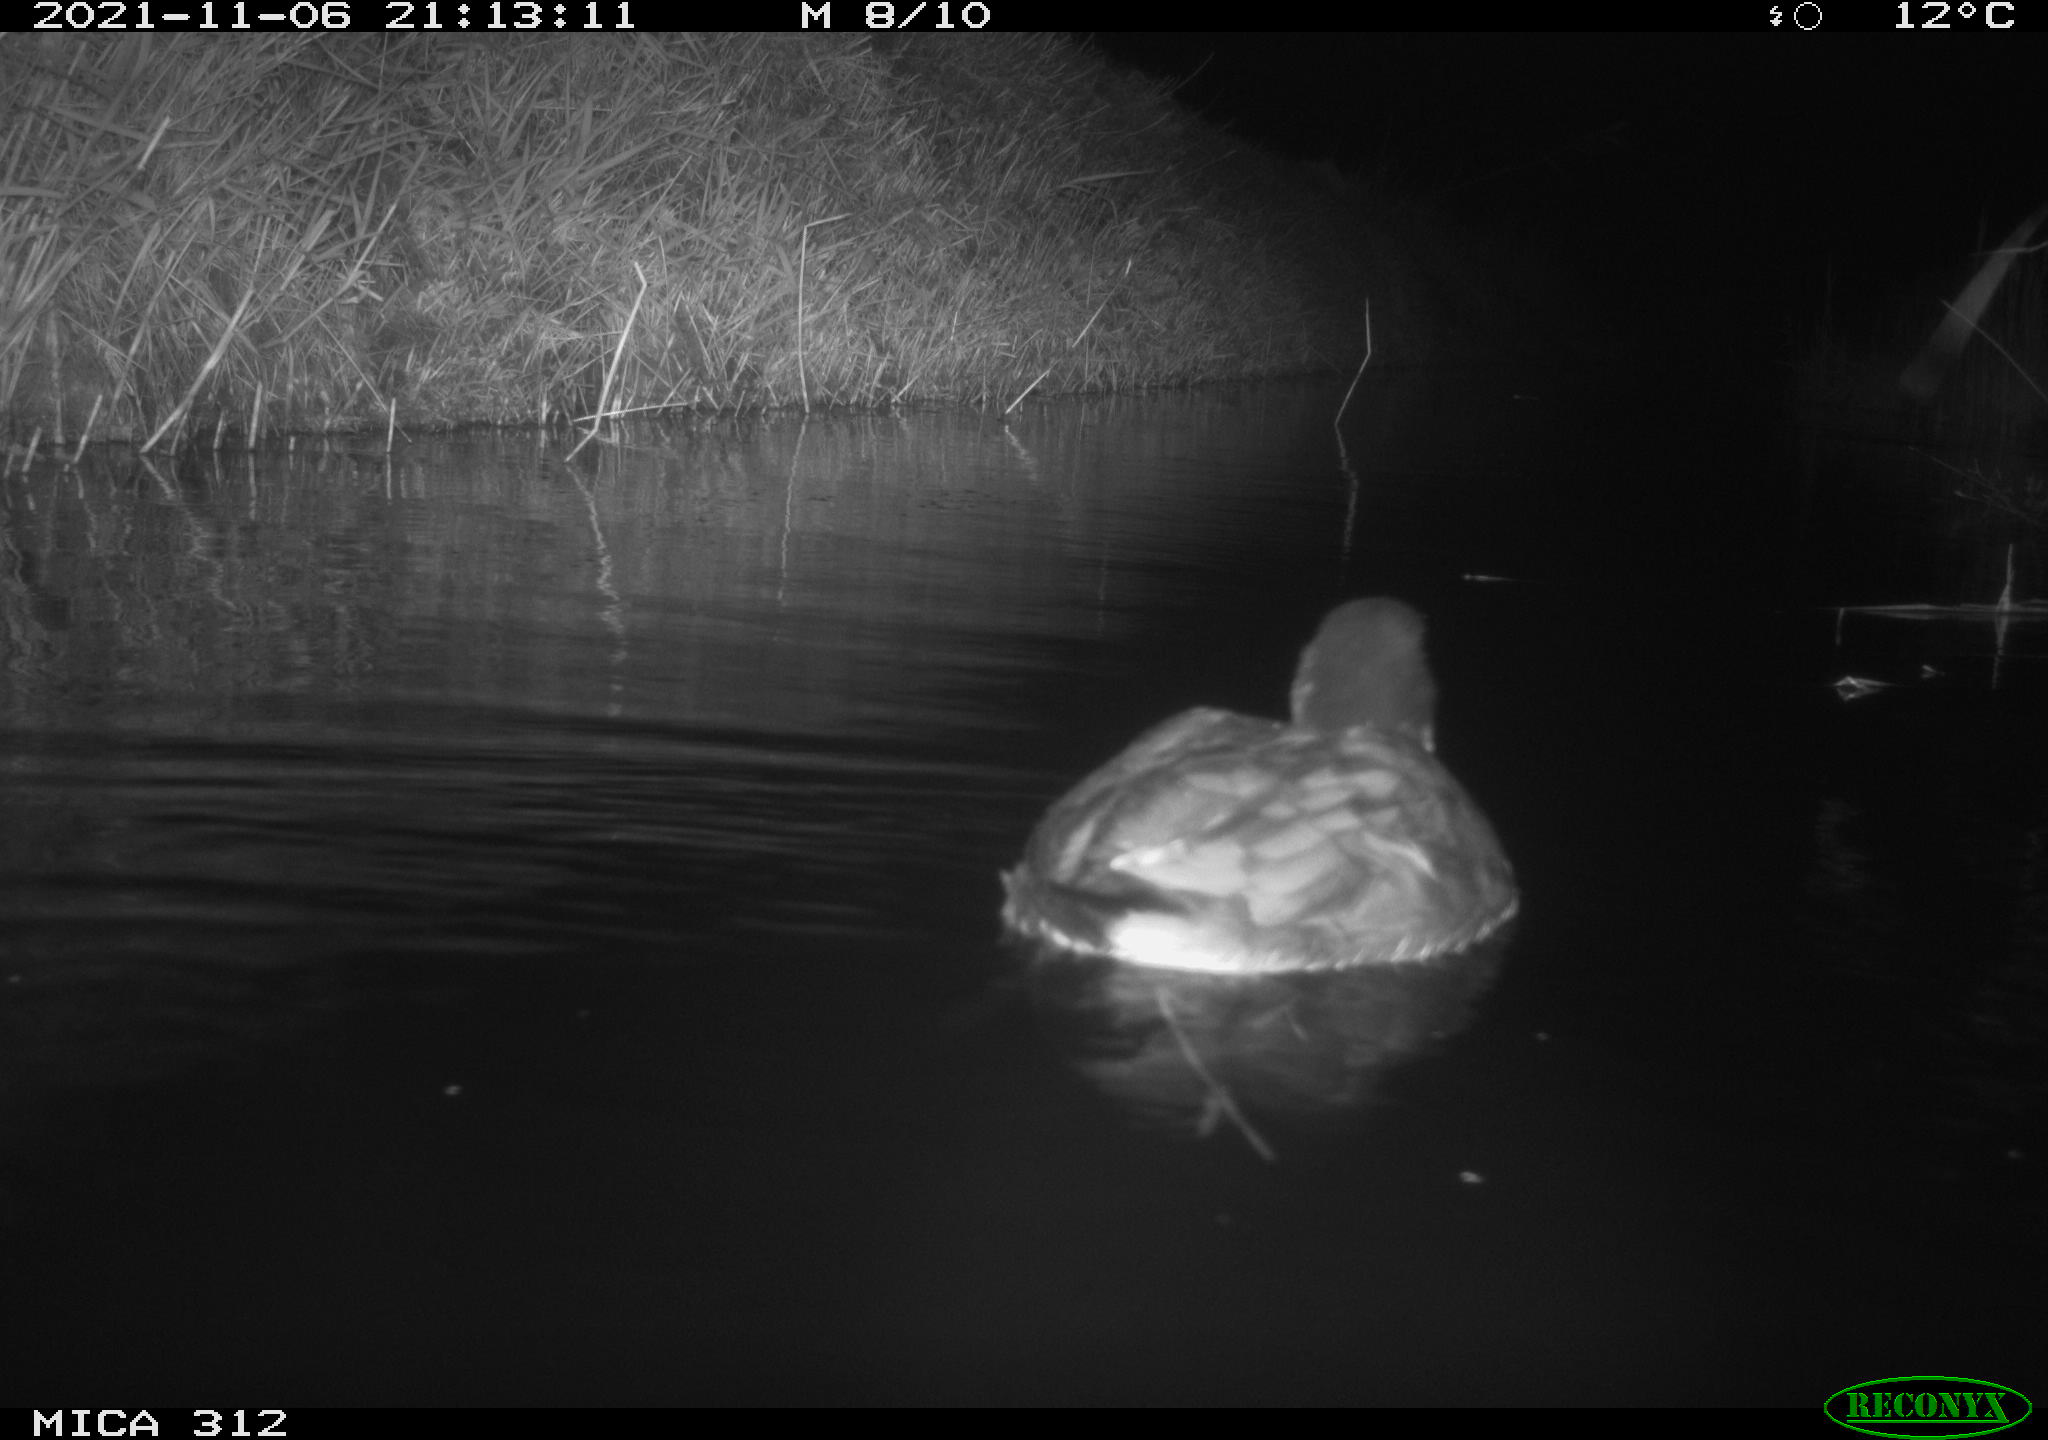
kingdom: Animalia
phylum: Chordata
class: Aves
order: Anseriformes
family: Anatidae
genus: Anas
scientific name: Anas
